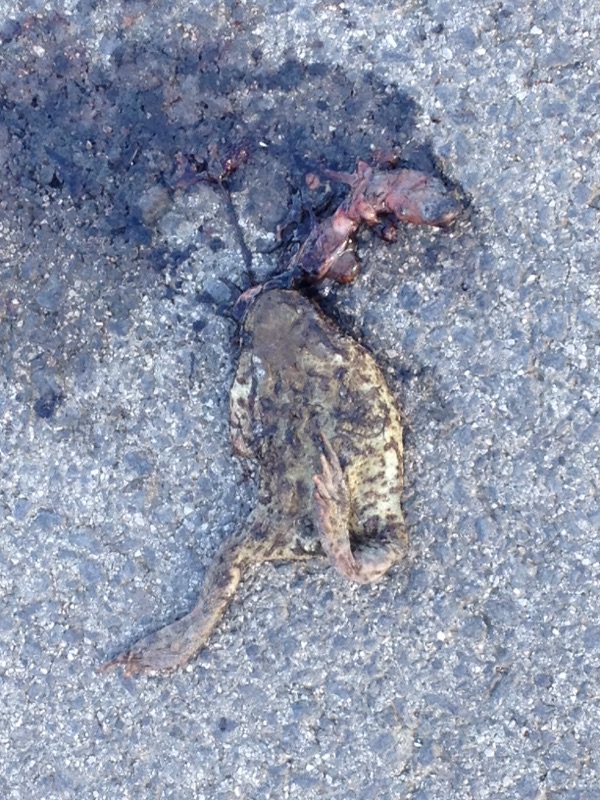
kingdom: Animalia
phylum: Chordata
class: Amphibia
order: Anura
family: Bufonidae
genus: Bufo
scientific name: Bufo bufo
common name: Common toad
